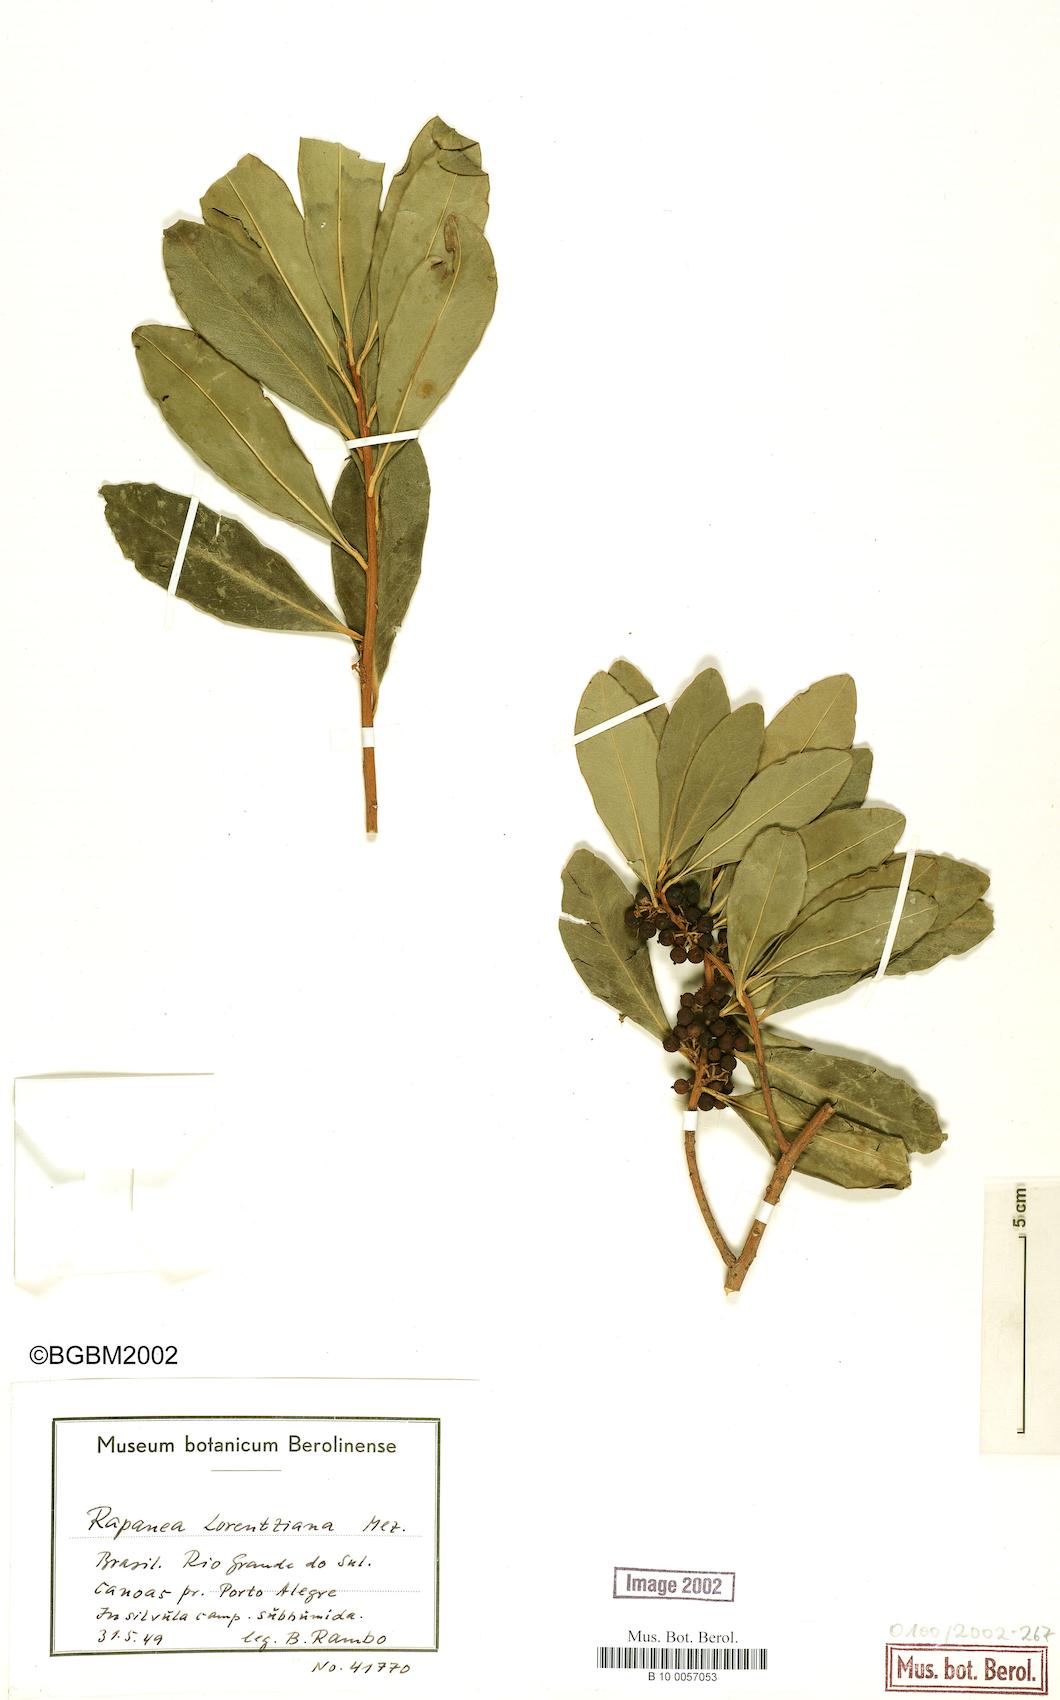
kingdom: Plantae
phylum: Tracheophyta
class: Magnoliopsida
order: Ericales
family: Primulaceae
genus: Myrsine
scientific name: Myrsine lorentziana
